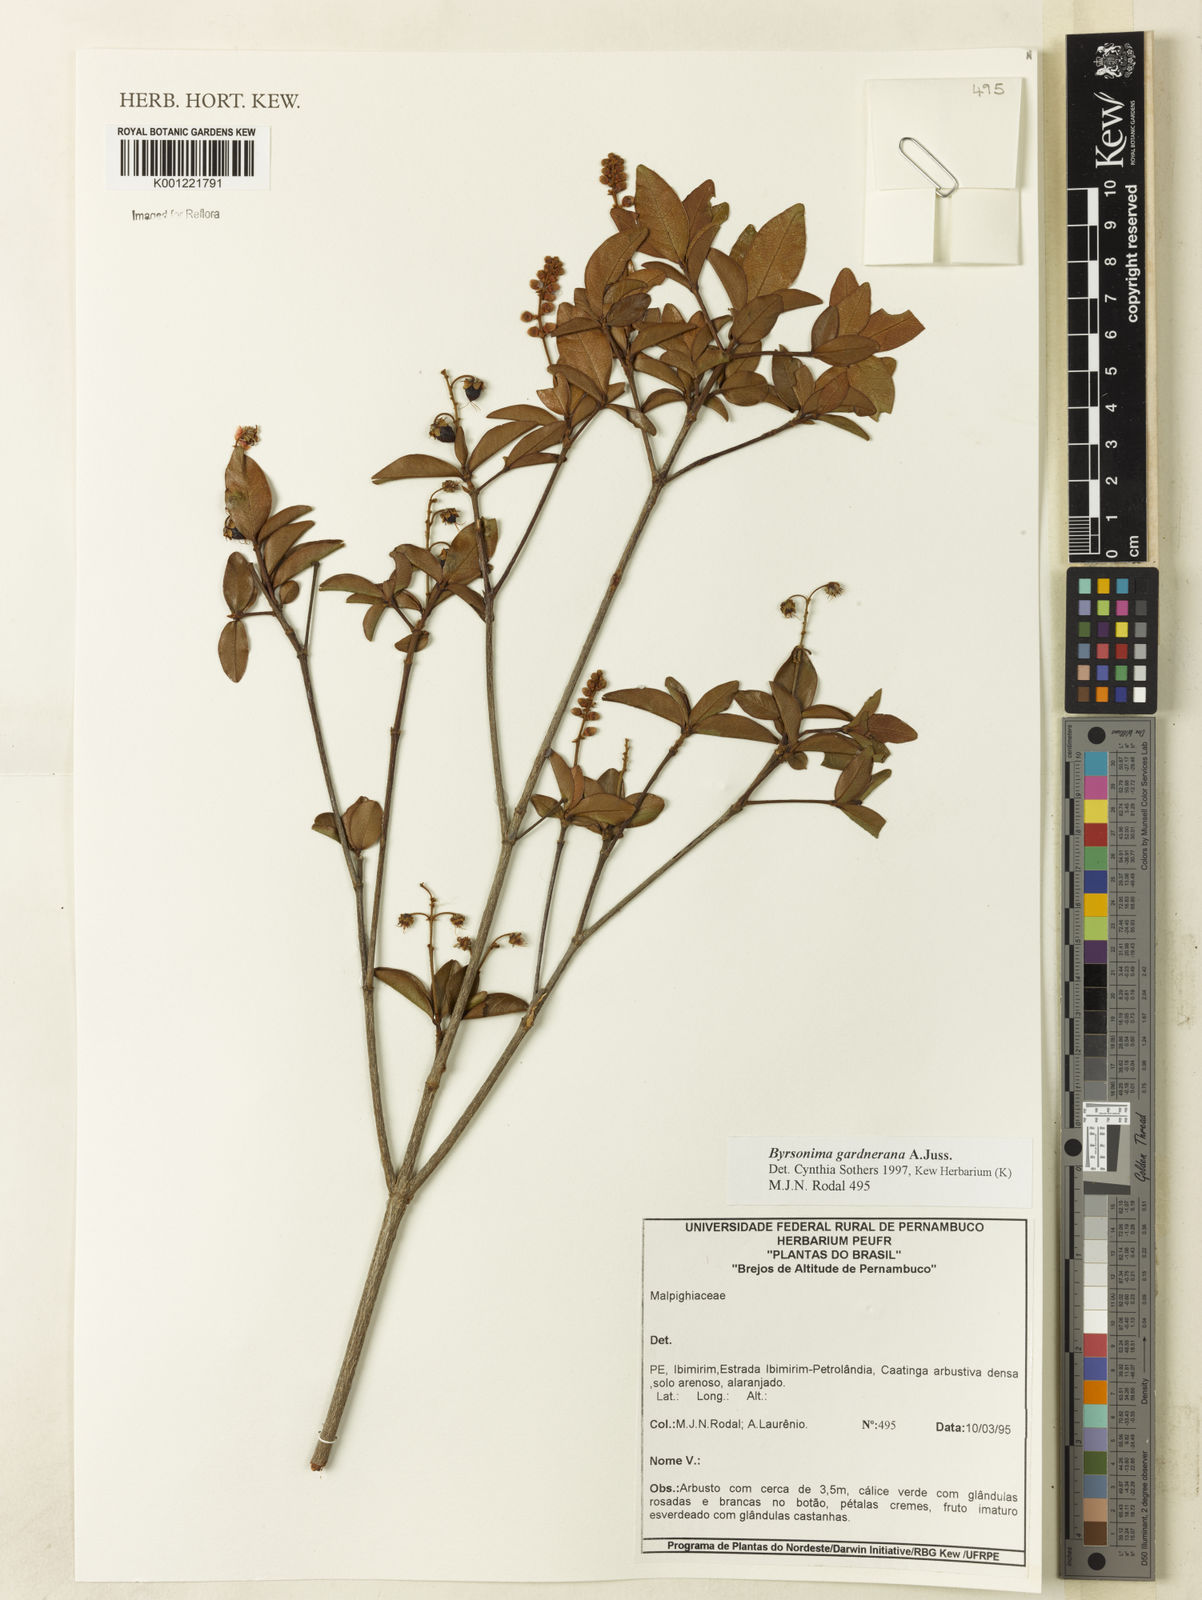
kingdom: Plantae
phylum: Tracheophyta
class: Magnoliopsida
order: Malpighiales
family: Malpighiaceae
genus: Byrsonima
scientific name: Byrsonima gardneriana
